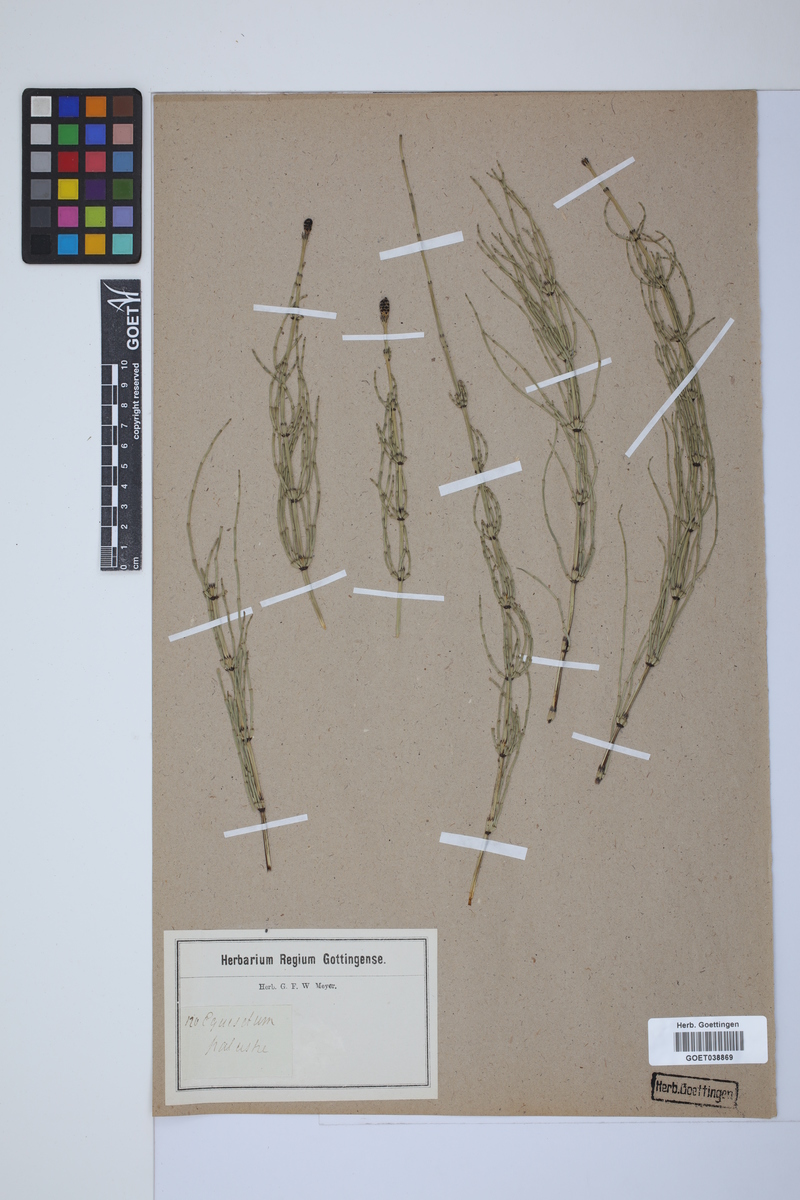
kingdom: Plantae
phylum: Tracheophyta
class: Polypodiopsida
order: Equisetales
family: Equisetaceae
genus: Equisetum
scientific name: Equisetum palustre
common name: Marsh horsetail
